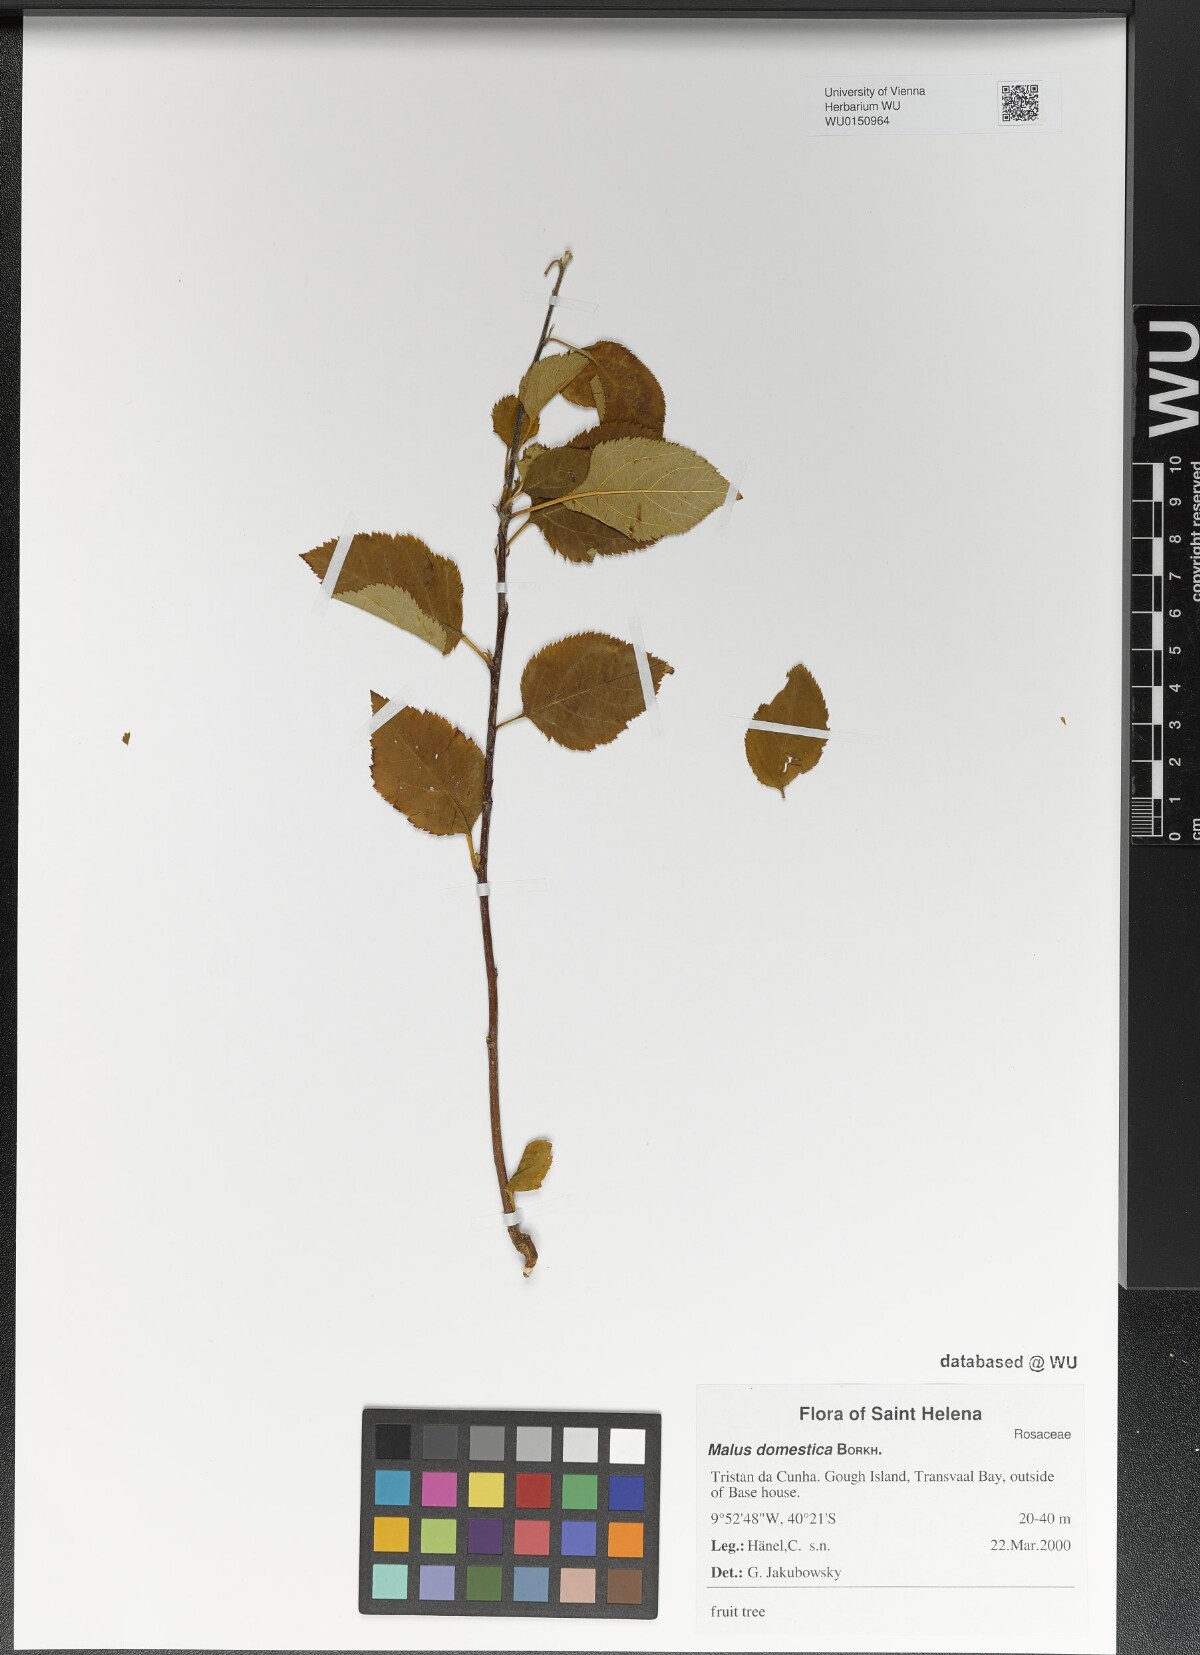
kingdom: Plantae
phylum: Tracheophyta
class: Magnoliopsida
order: Rosales
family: Rosaceae
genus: Malus
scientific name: Malus domestica
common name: Apple
